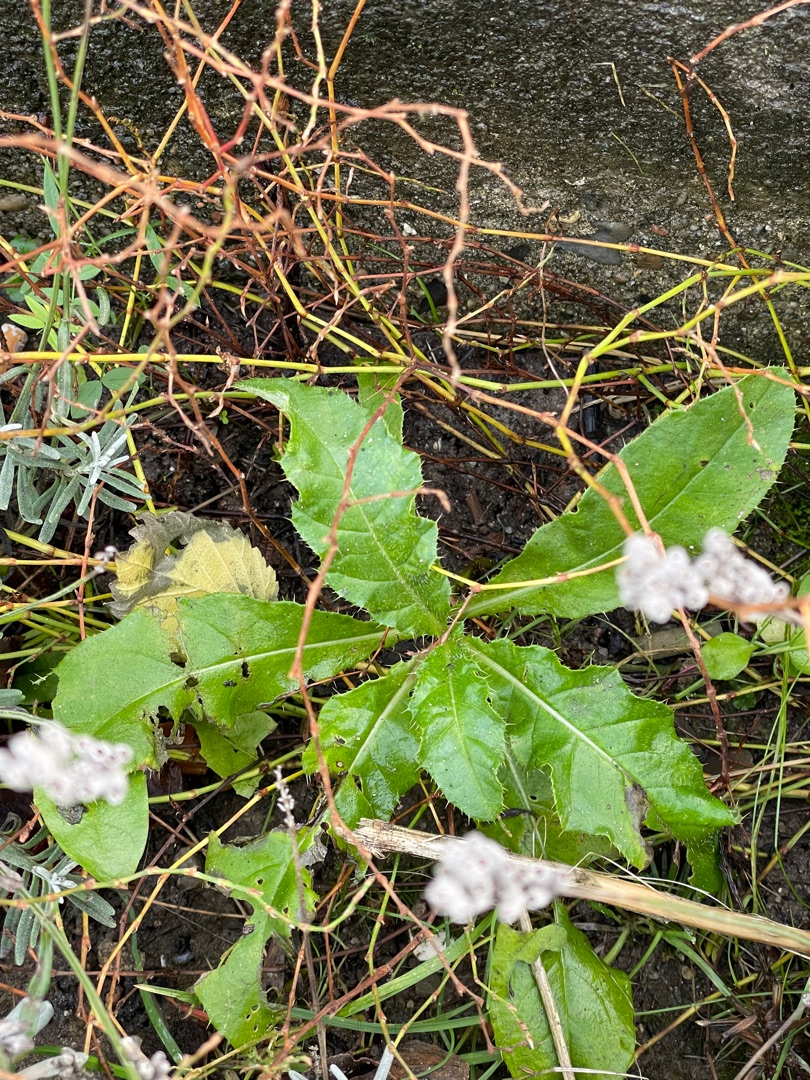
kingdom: Plantae
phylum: Tracheophyta
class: Magnoliopsida
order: Asterales
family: Asteraceae
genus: Cirsium
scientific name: Cirsium arvense
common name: Ager-tidsel
